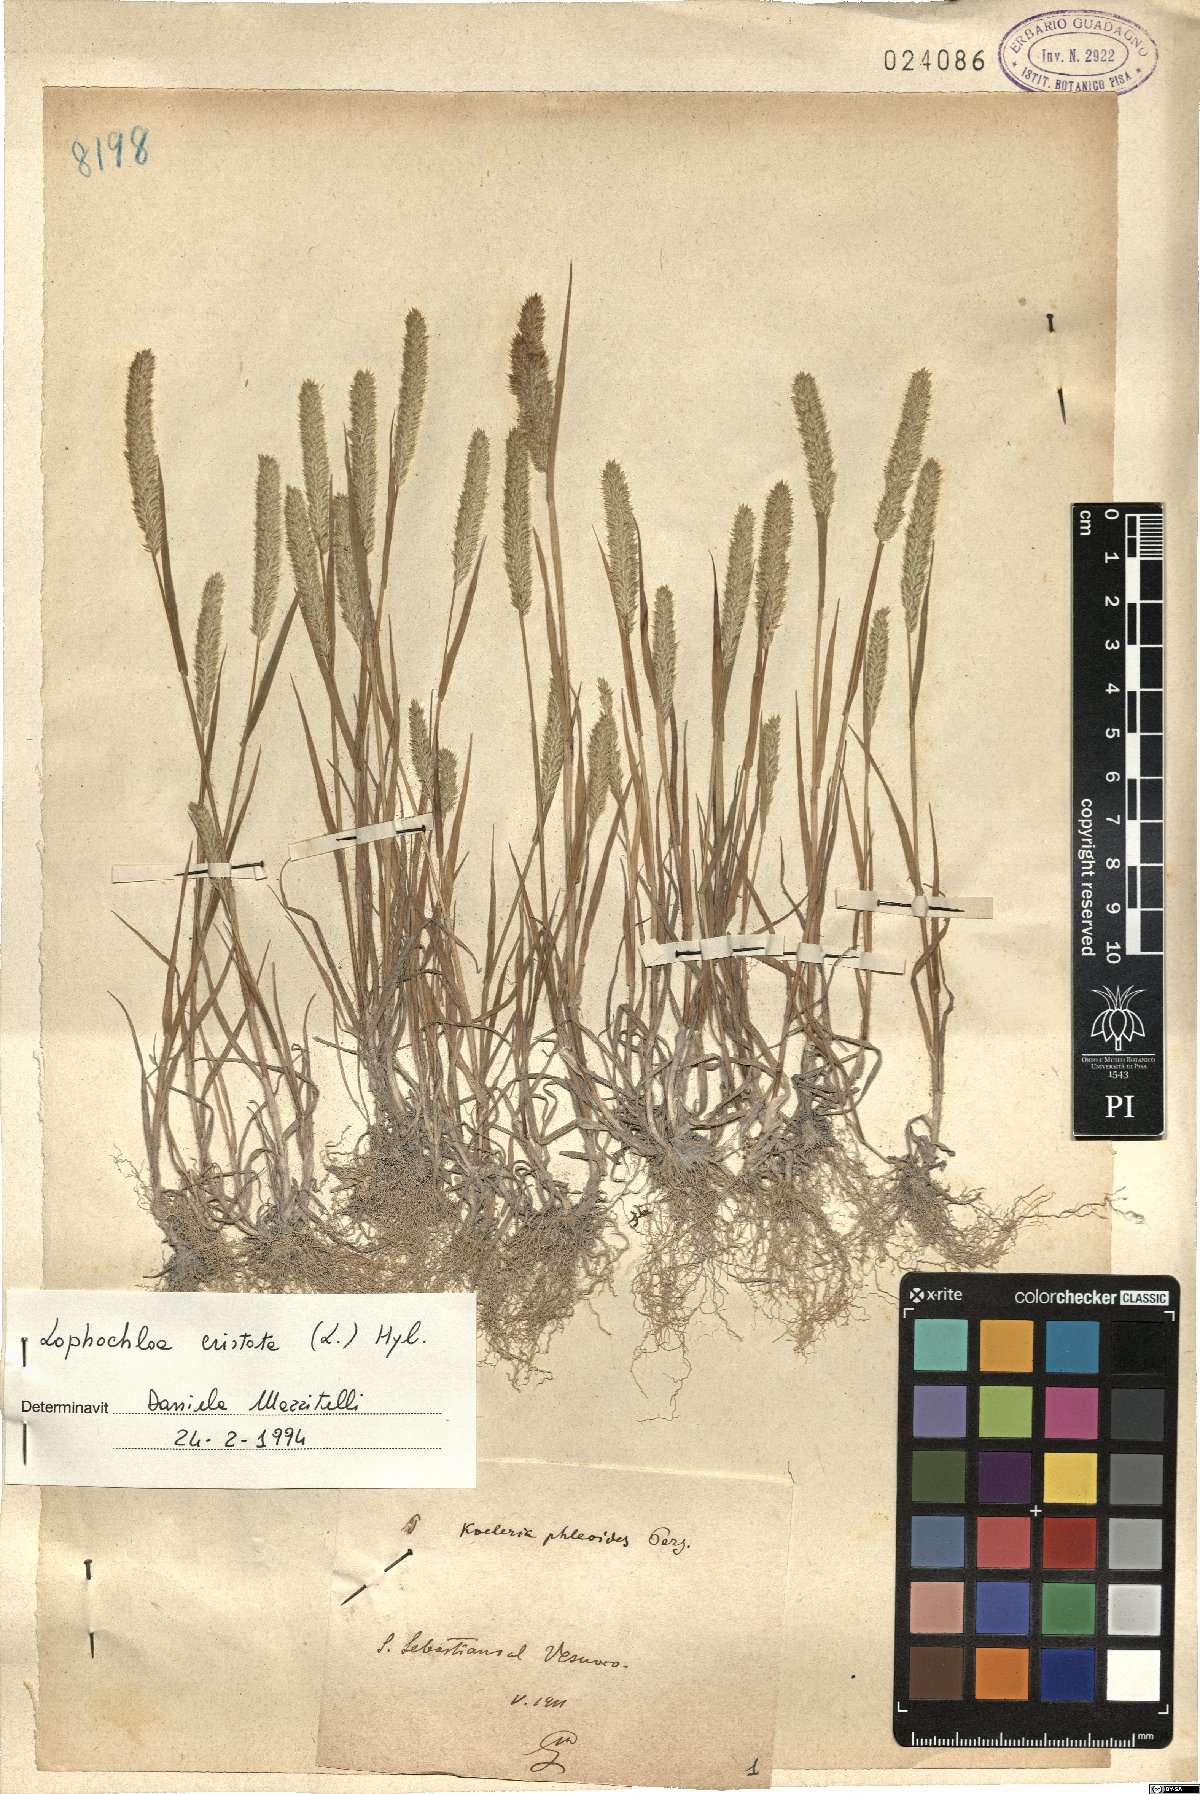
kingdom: Plantae
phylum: Tracheophyta
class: Liliopsida
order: Poales
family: Poaceae
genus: Rostraria
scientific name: Rostraria cristata
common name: Mediterranean hair-grass
